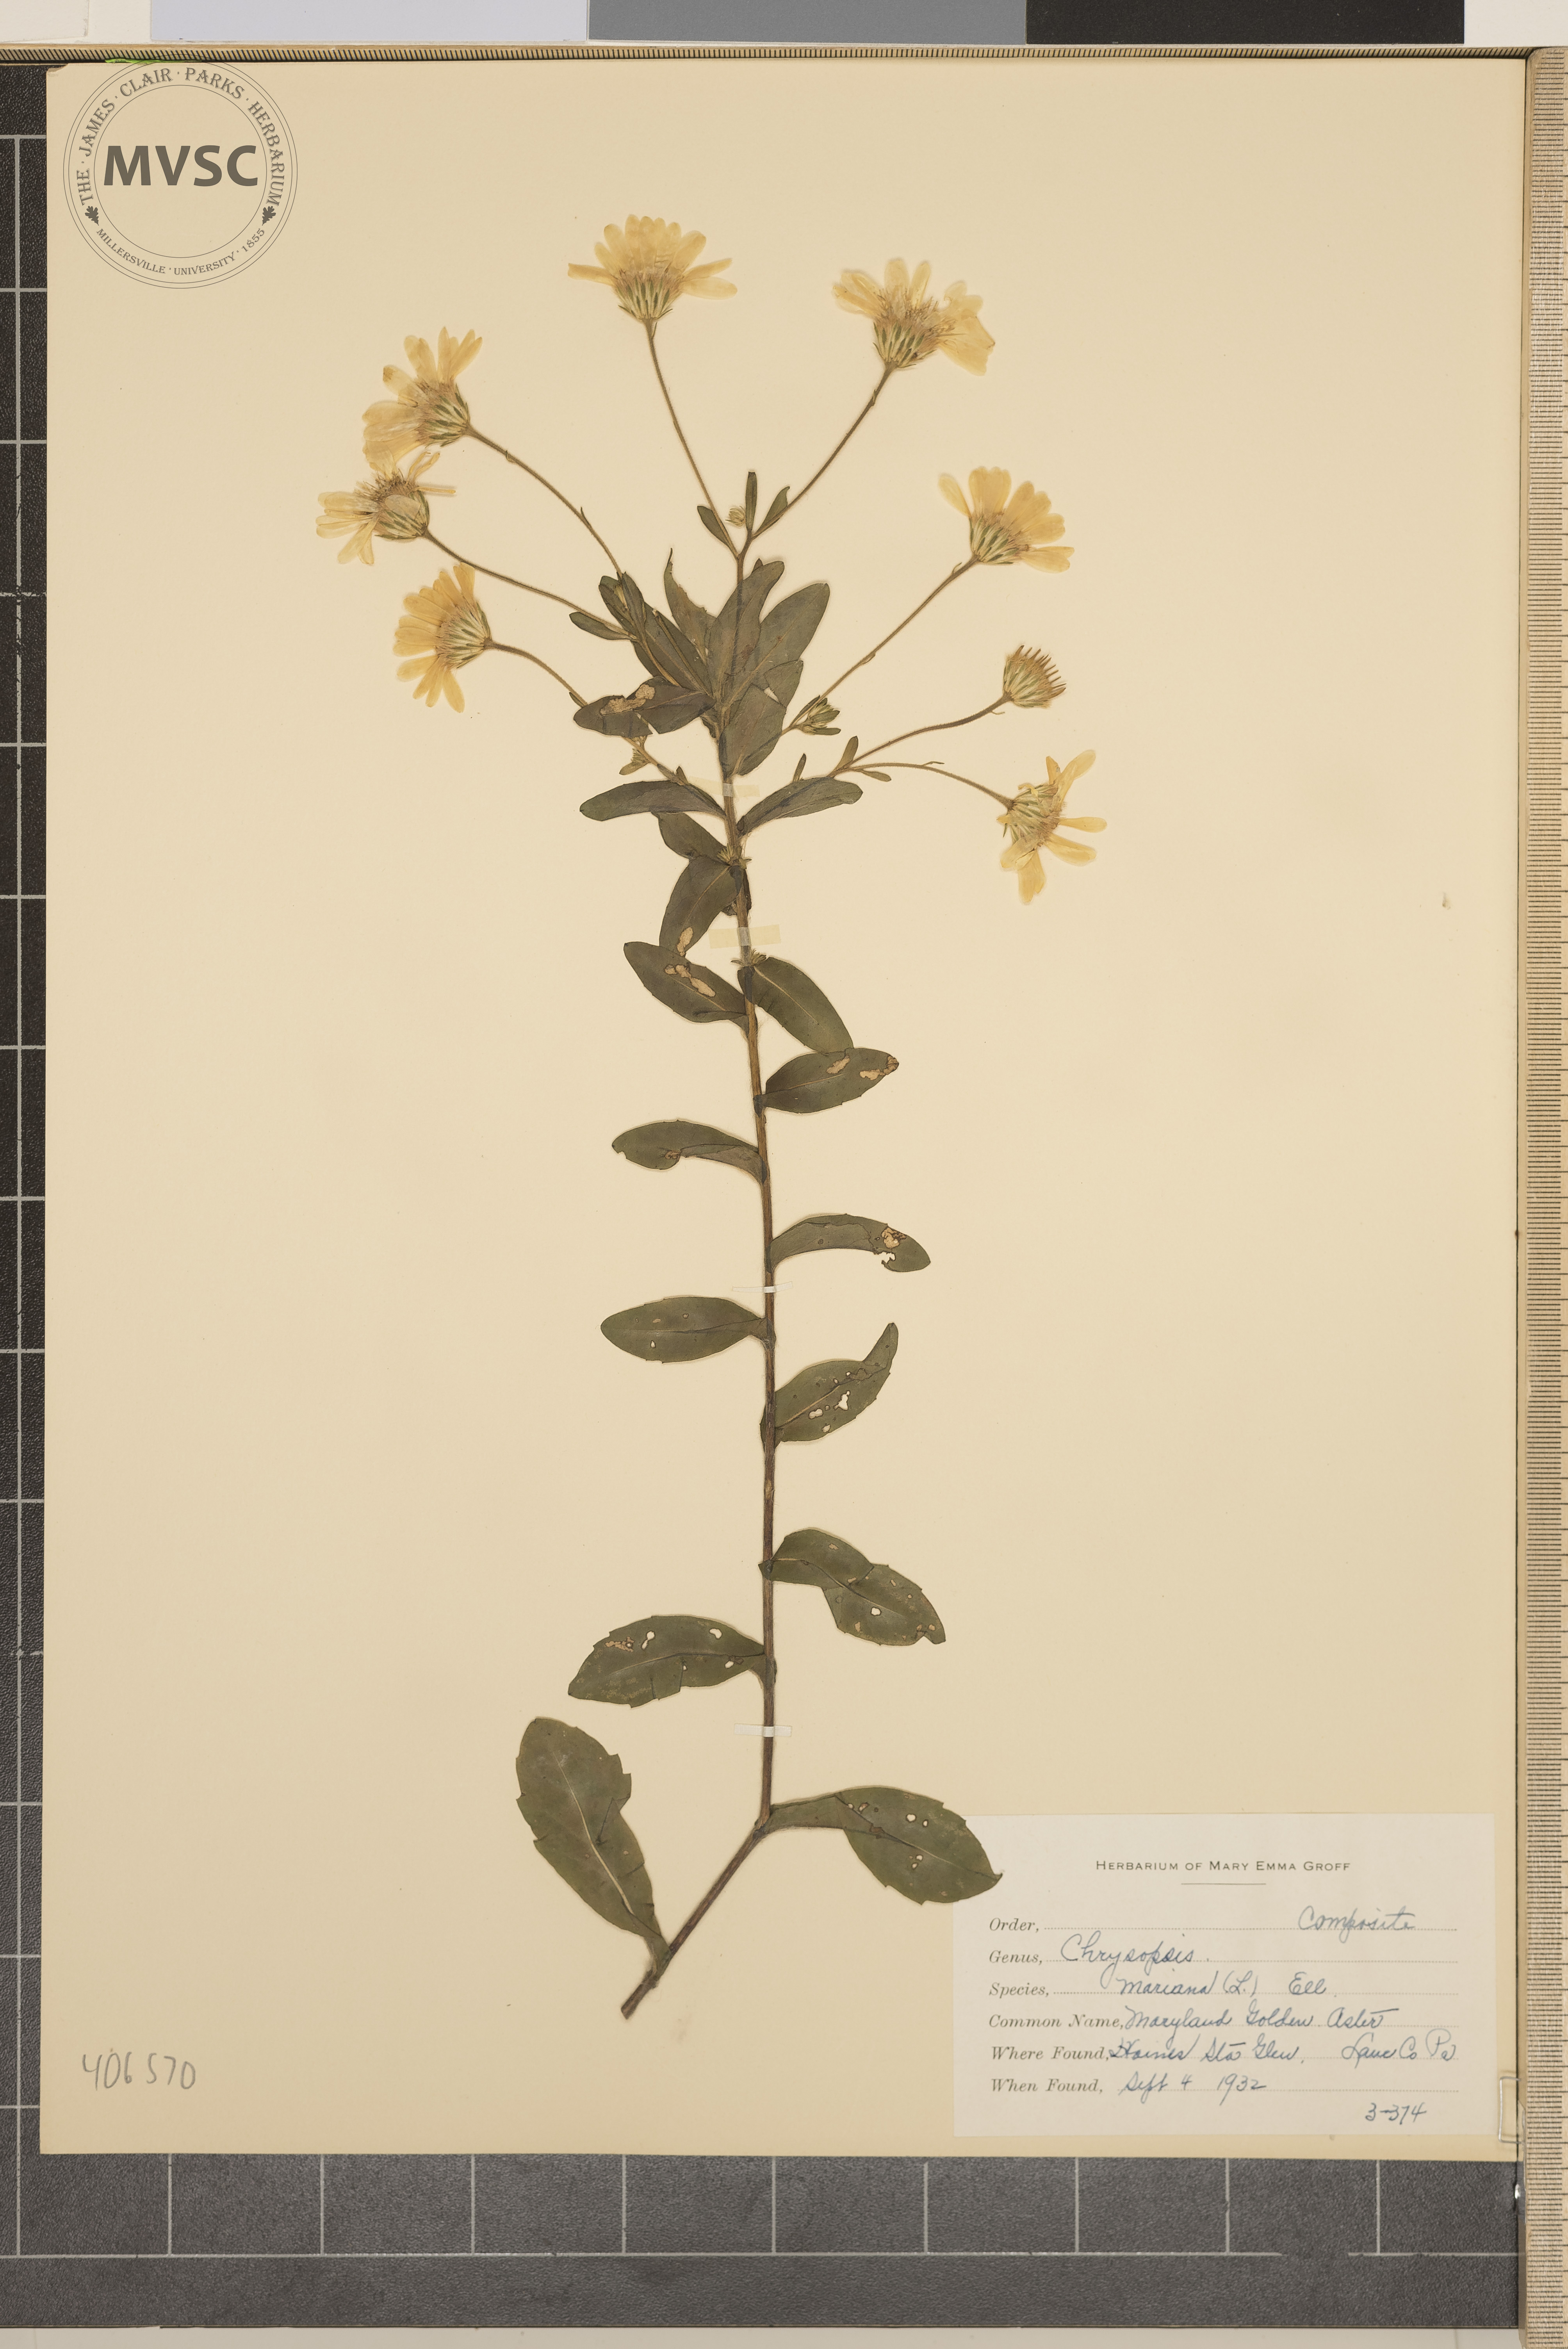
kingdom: Plantae
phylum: Tracheophyta
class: Magnoliopsida
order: Asterales
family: Asteraceae
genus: Chrysopsis
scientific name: Chrysopsis mariana
